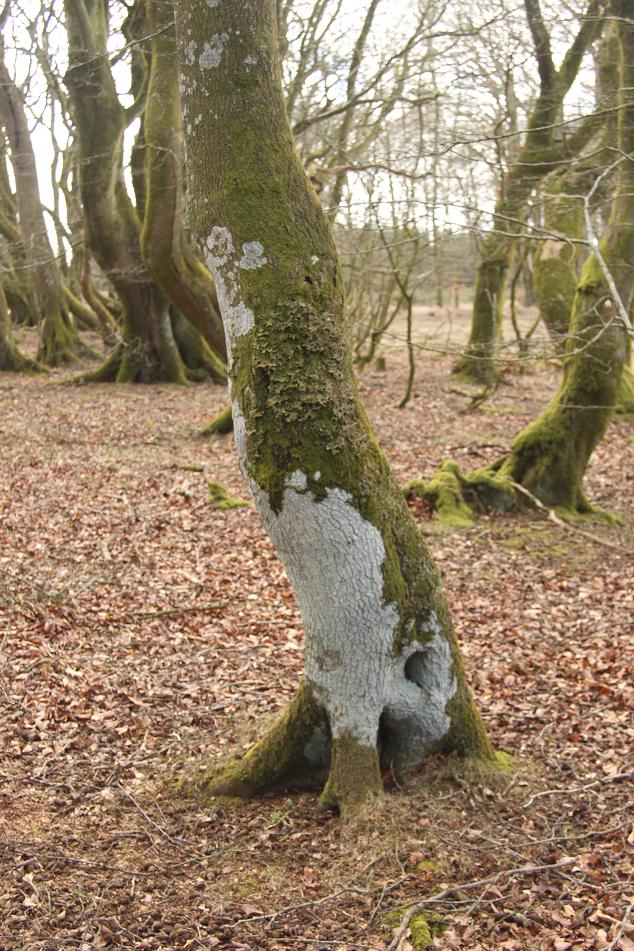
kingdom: Fungi
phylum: Ascomycota
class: Lecanoromycetes
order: Peltigerales
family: Lobariaceae
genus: Lobaria
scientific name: Lobaria pulmonaria
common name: almindelig lungelav
